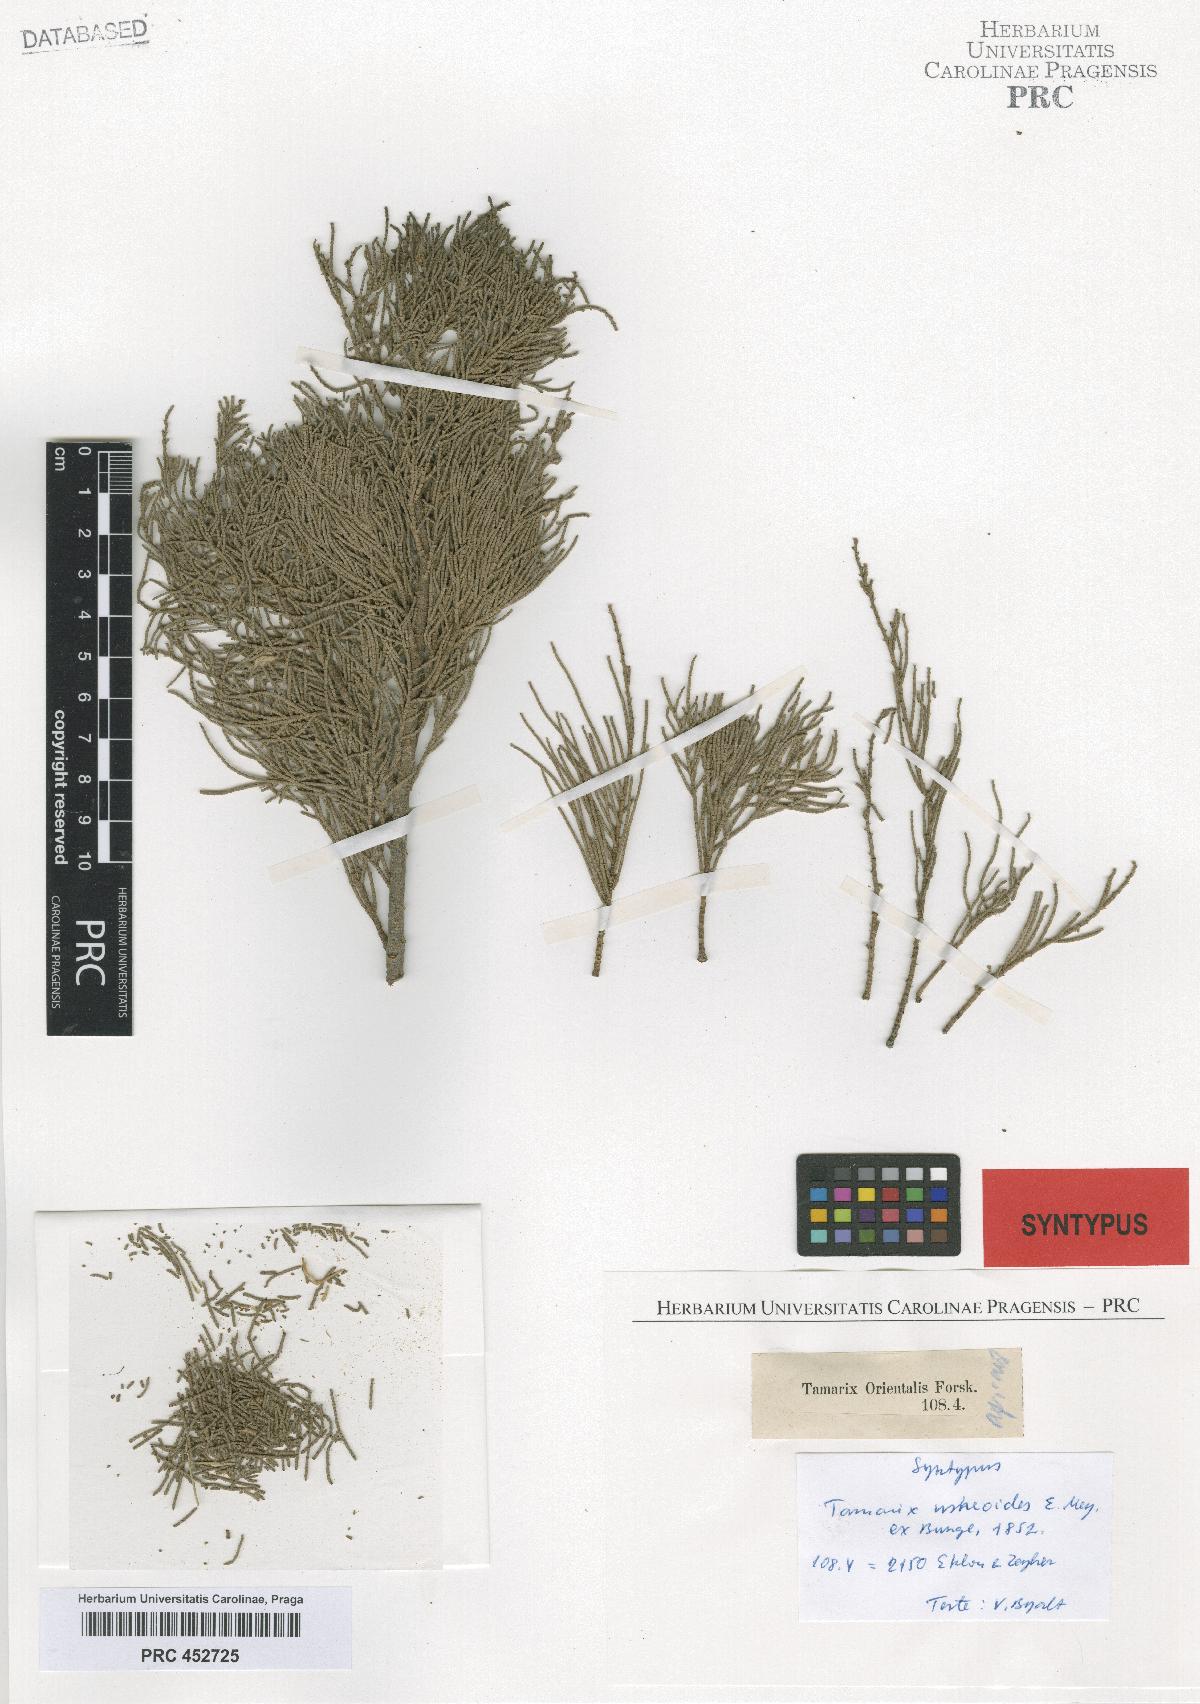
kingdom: Plantae
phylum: Tracheophyta
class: Magnoliopsida
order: Caryophyllales
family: Tamaricaceae
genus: Tamarix
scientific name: Tamarix usneoides
